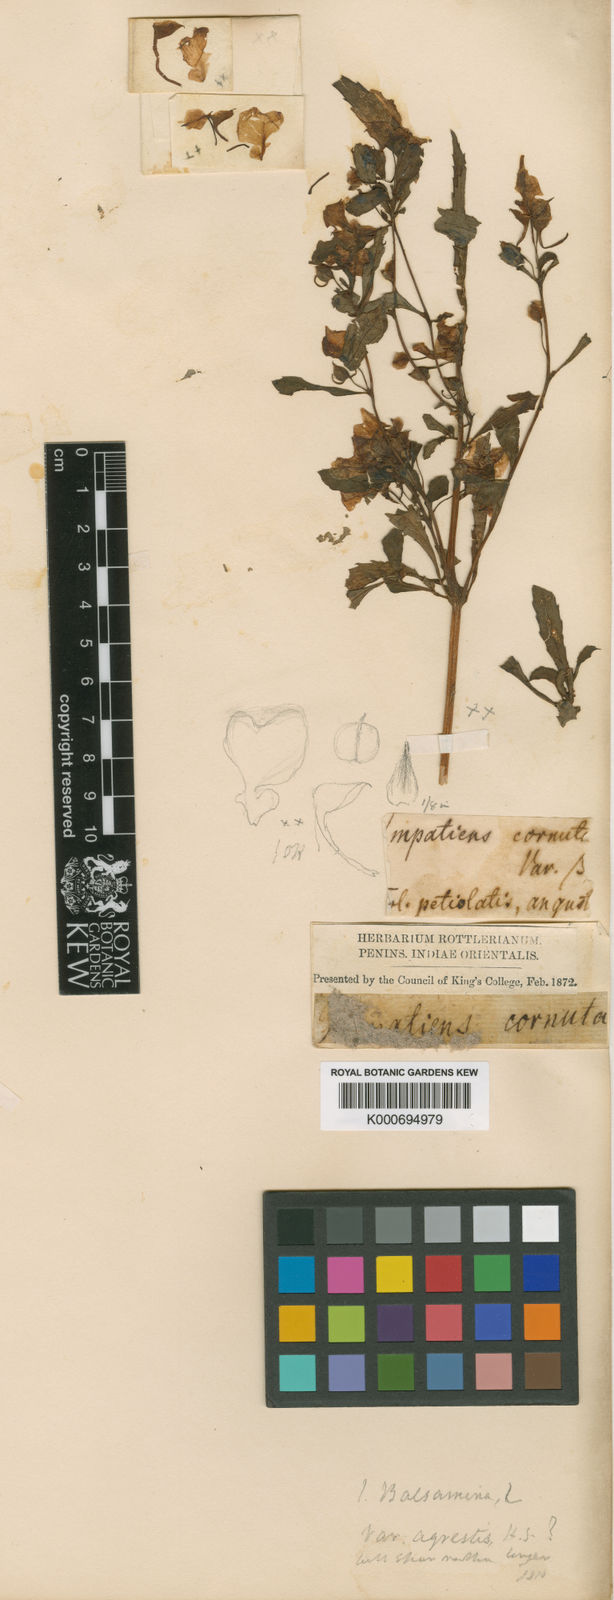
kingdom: Plantae
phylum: Tracheophyta
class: Magnoliopsida
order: Ericales
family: Balsaminaceae
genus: Impatiens
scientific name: Impatiens balsamina
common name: Balsam
